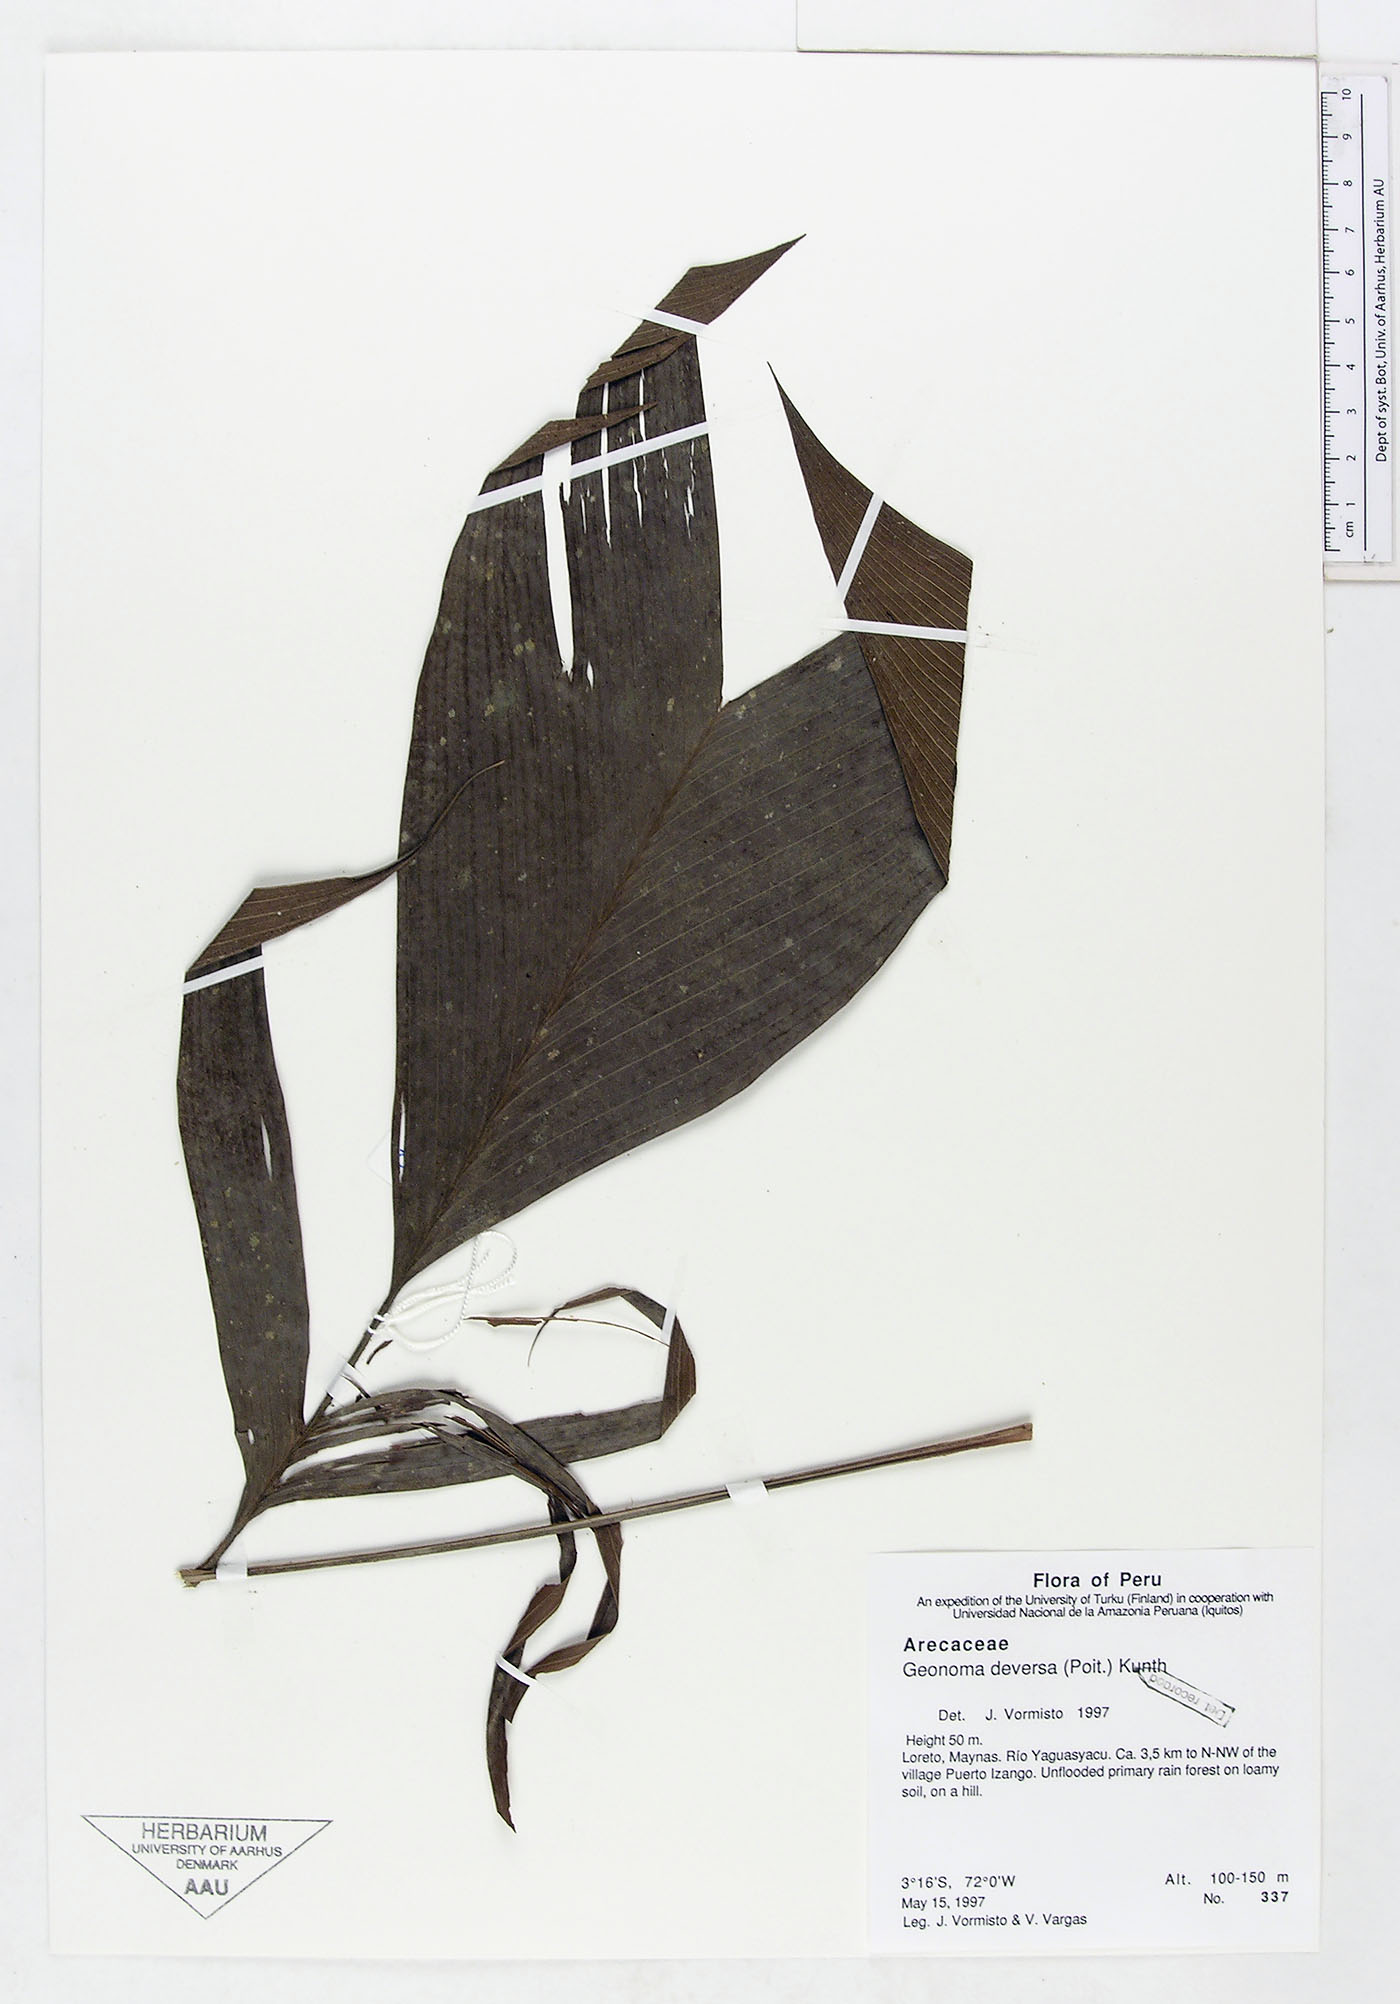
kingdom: Plantae
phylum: Tracheophyta
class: Liliopsida
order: Arecales
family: Arecaceae
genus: Geonoma
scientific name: Geonoma deversa
